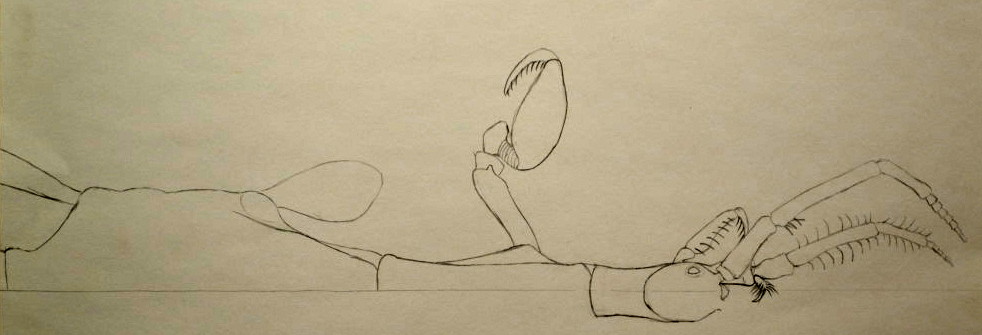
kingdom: Animalia
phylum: Arthropoda
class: Malacostraca
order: Amphipoda
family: Caprellidae
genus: Caprella
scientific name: Caprella septentrionalis
